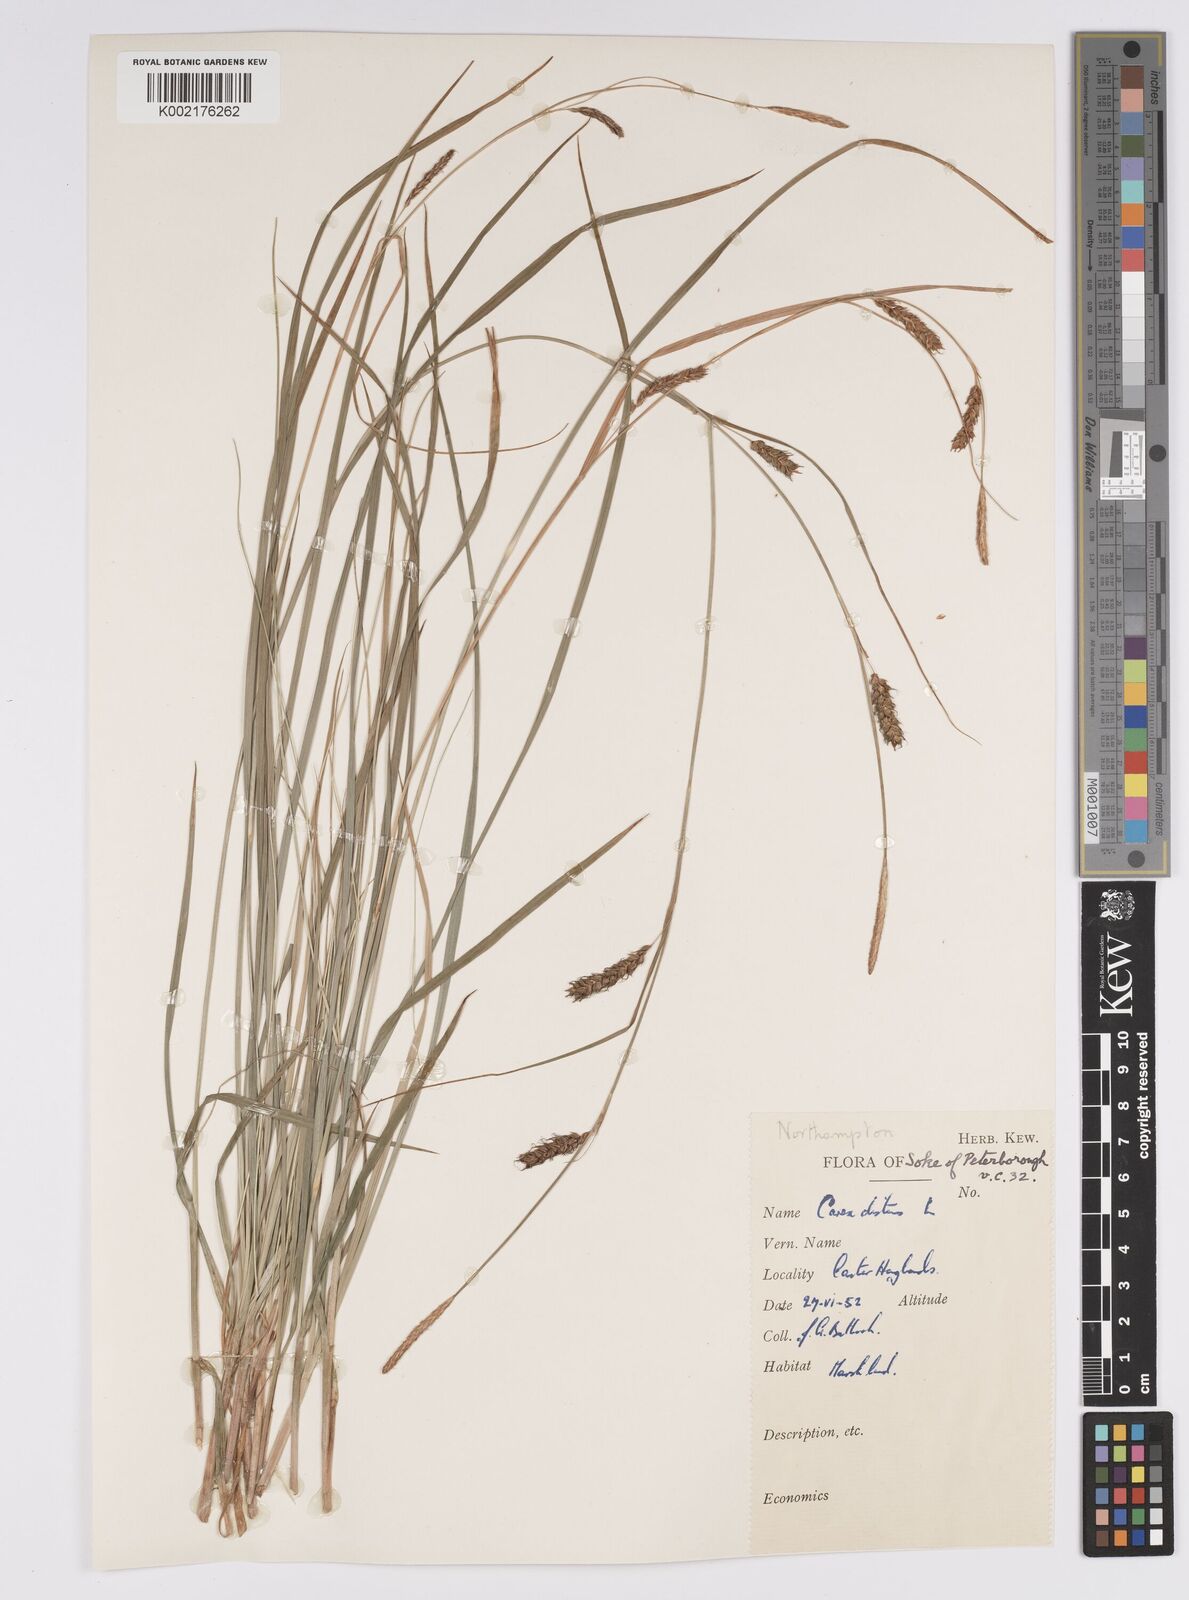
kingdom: Plantae
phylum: Tracheophyta
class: Liliopsida
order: Poales
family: Cyperaceae
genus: Carex
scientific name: Carex distans
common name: Distant sedge
